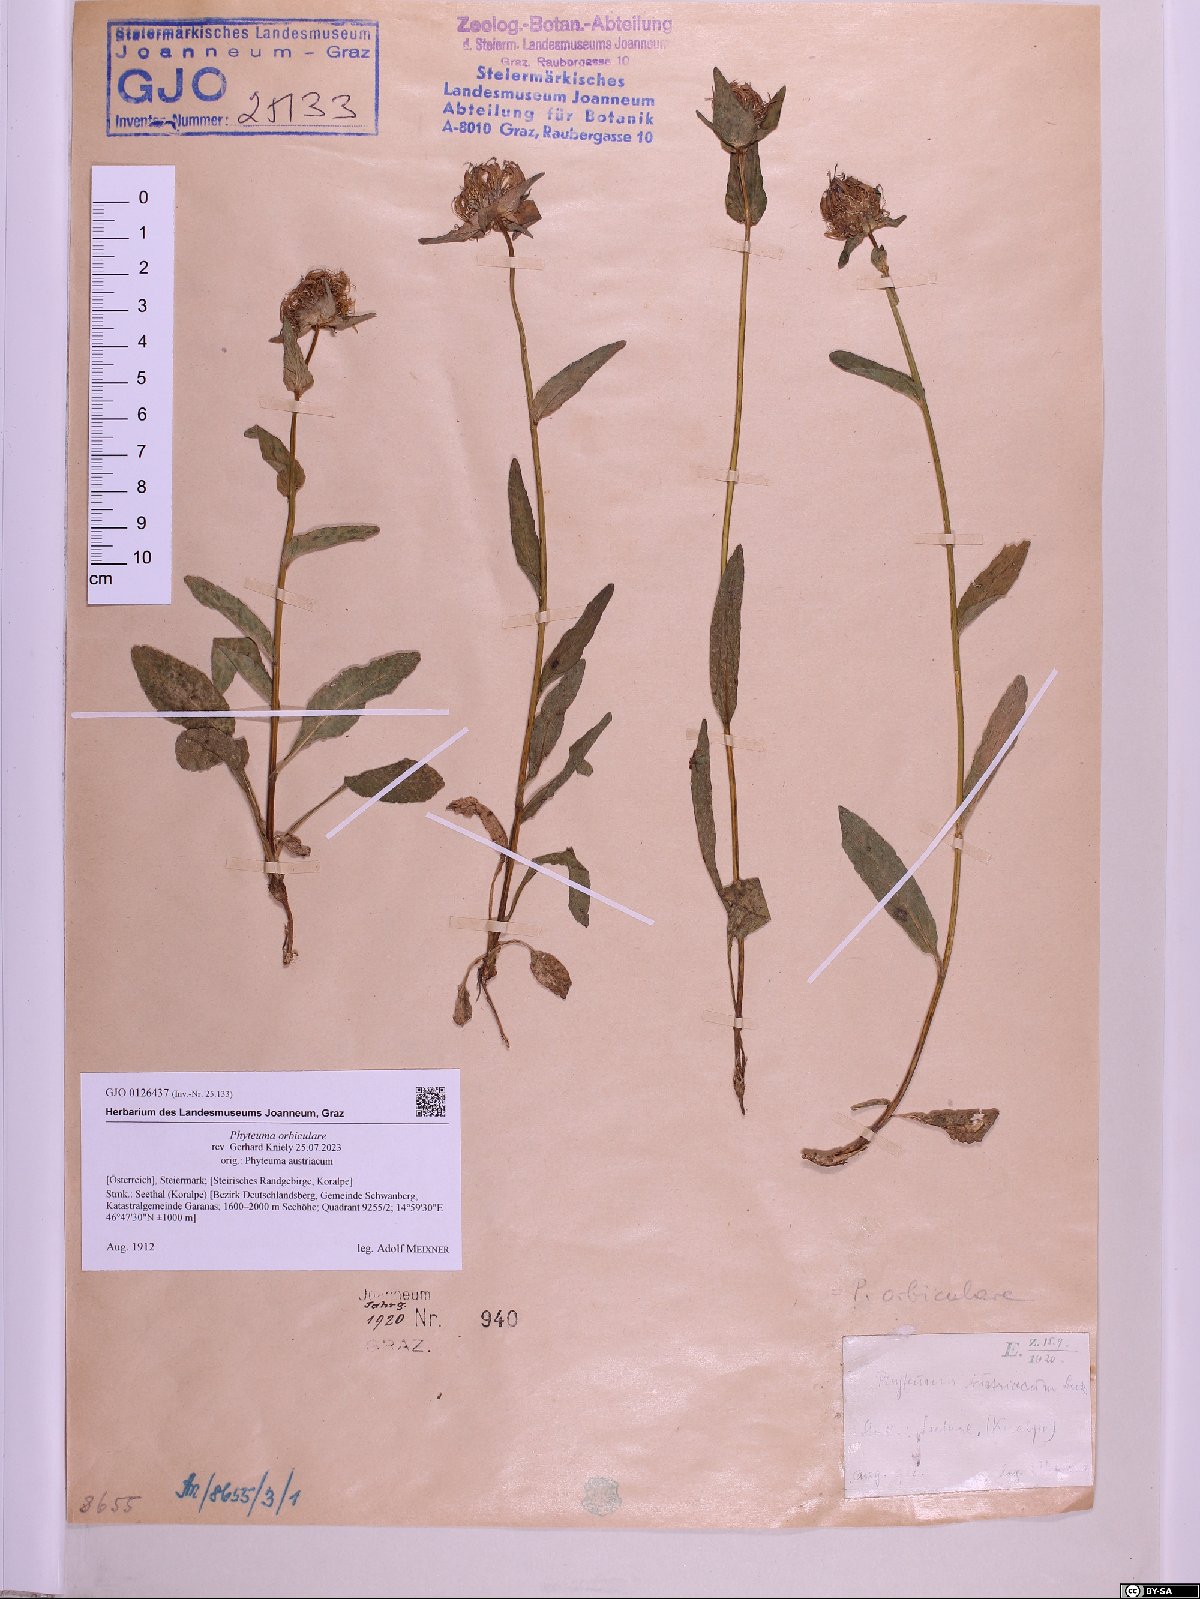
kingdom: Plantae
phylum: Tracheophyta
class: Magnoliopsida
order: Asterales
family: Campanulaceae
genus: Phyteuma
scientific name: Phyteuma orbiculare
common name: Round-headed rampion
